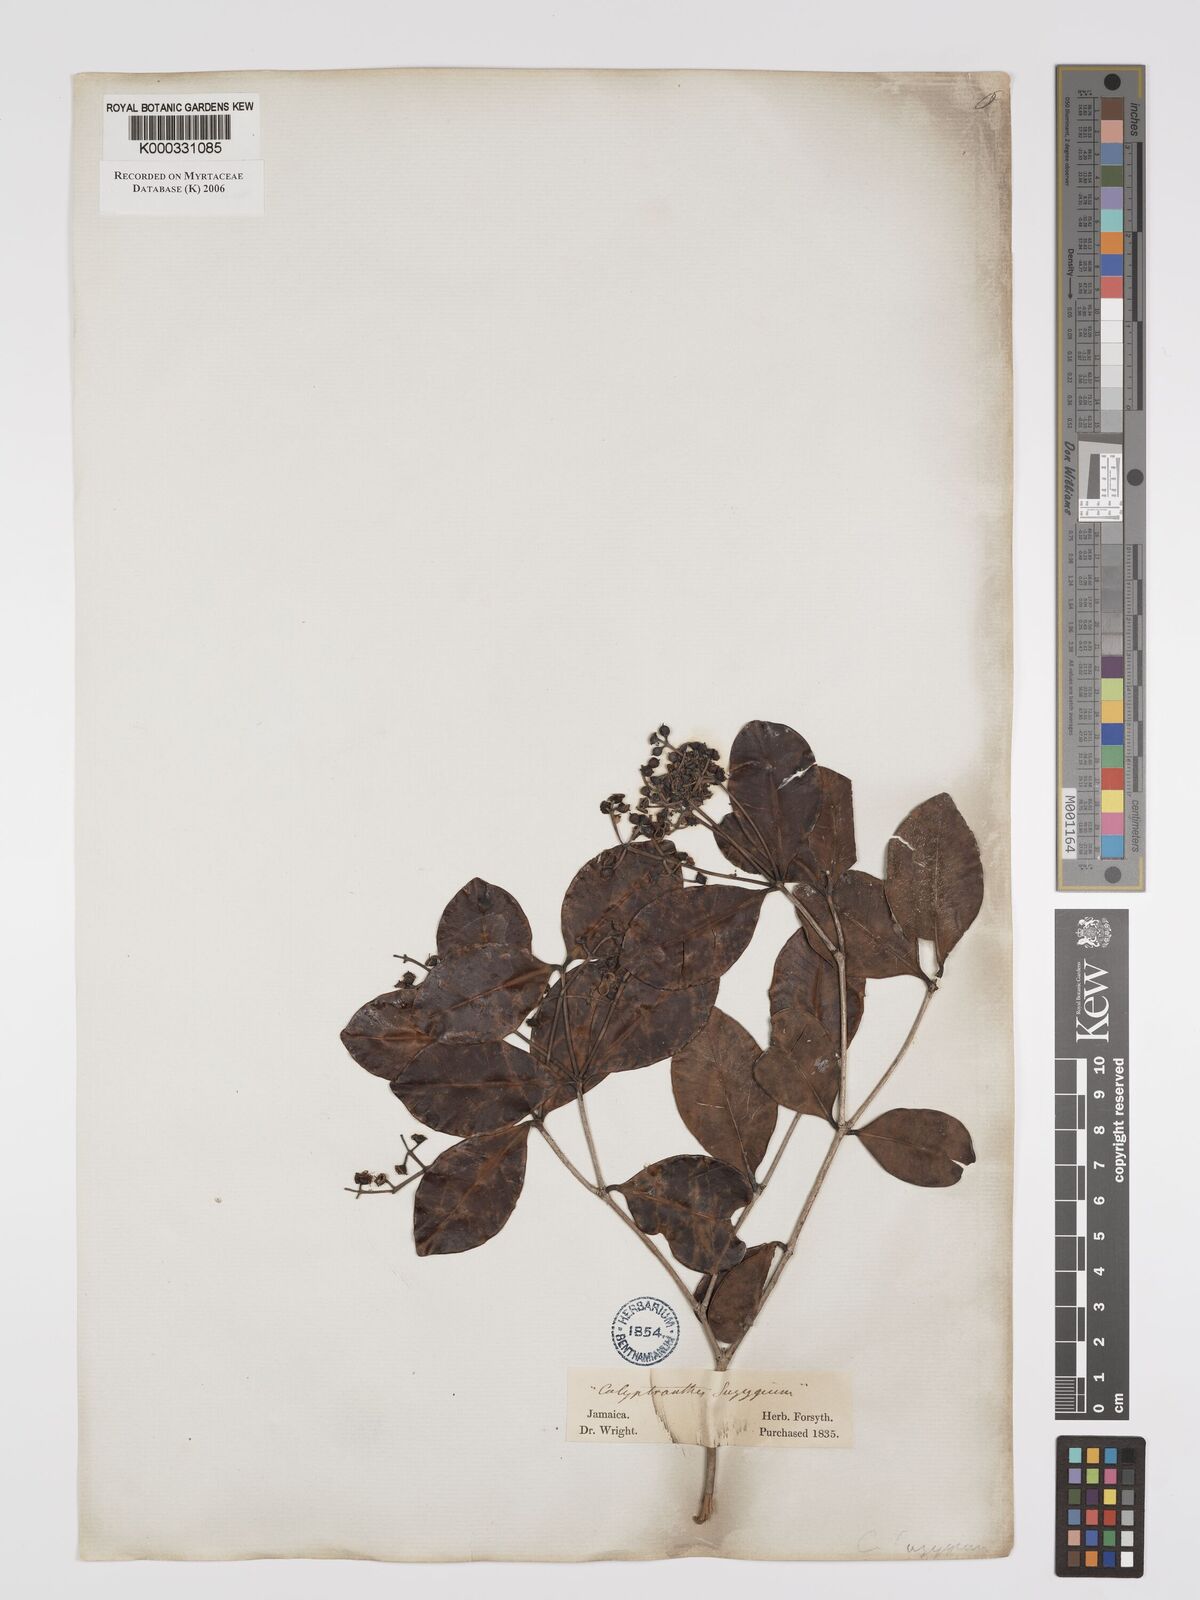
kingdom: Plantae
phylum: Tracheophyta
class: Magnoliopsida
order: Myrtales
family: Myrtaceae
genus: Myrcia
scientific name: Myrcia chytraculia
